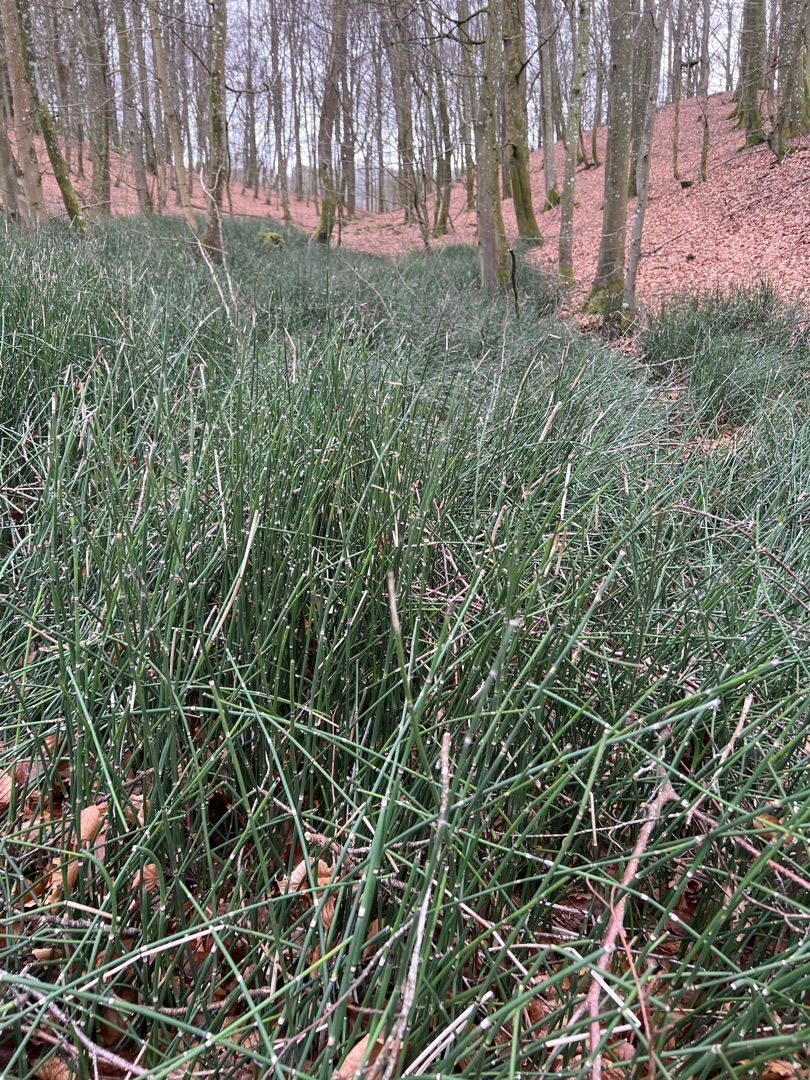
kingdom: Plantae
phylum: Tracheophyta
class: Polypodiopsida
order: Equisetales
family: Equisetaceae
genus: Equisetum
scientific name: Equisetum hyemale
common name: Skavgræs
